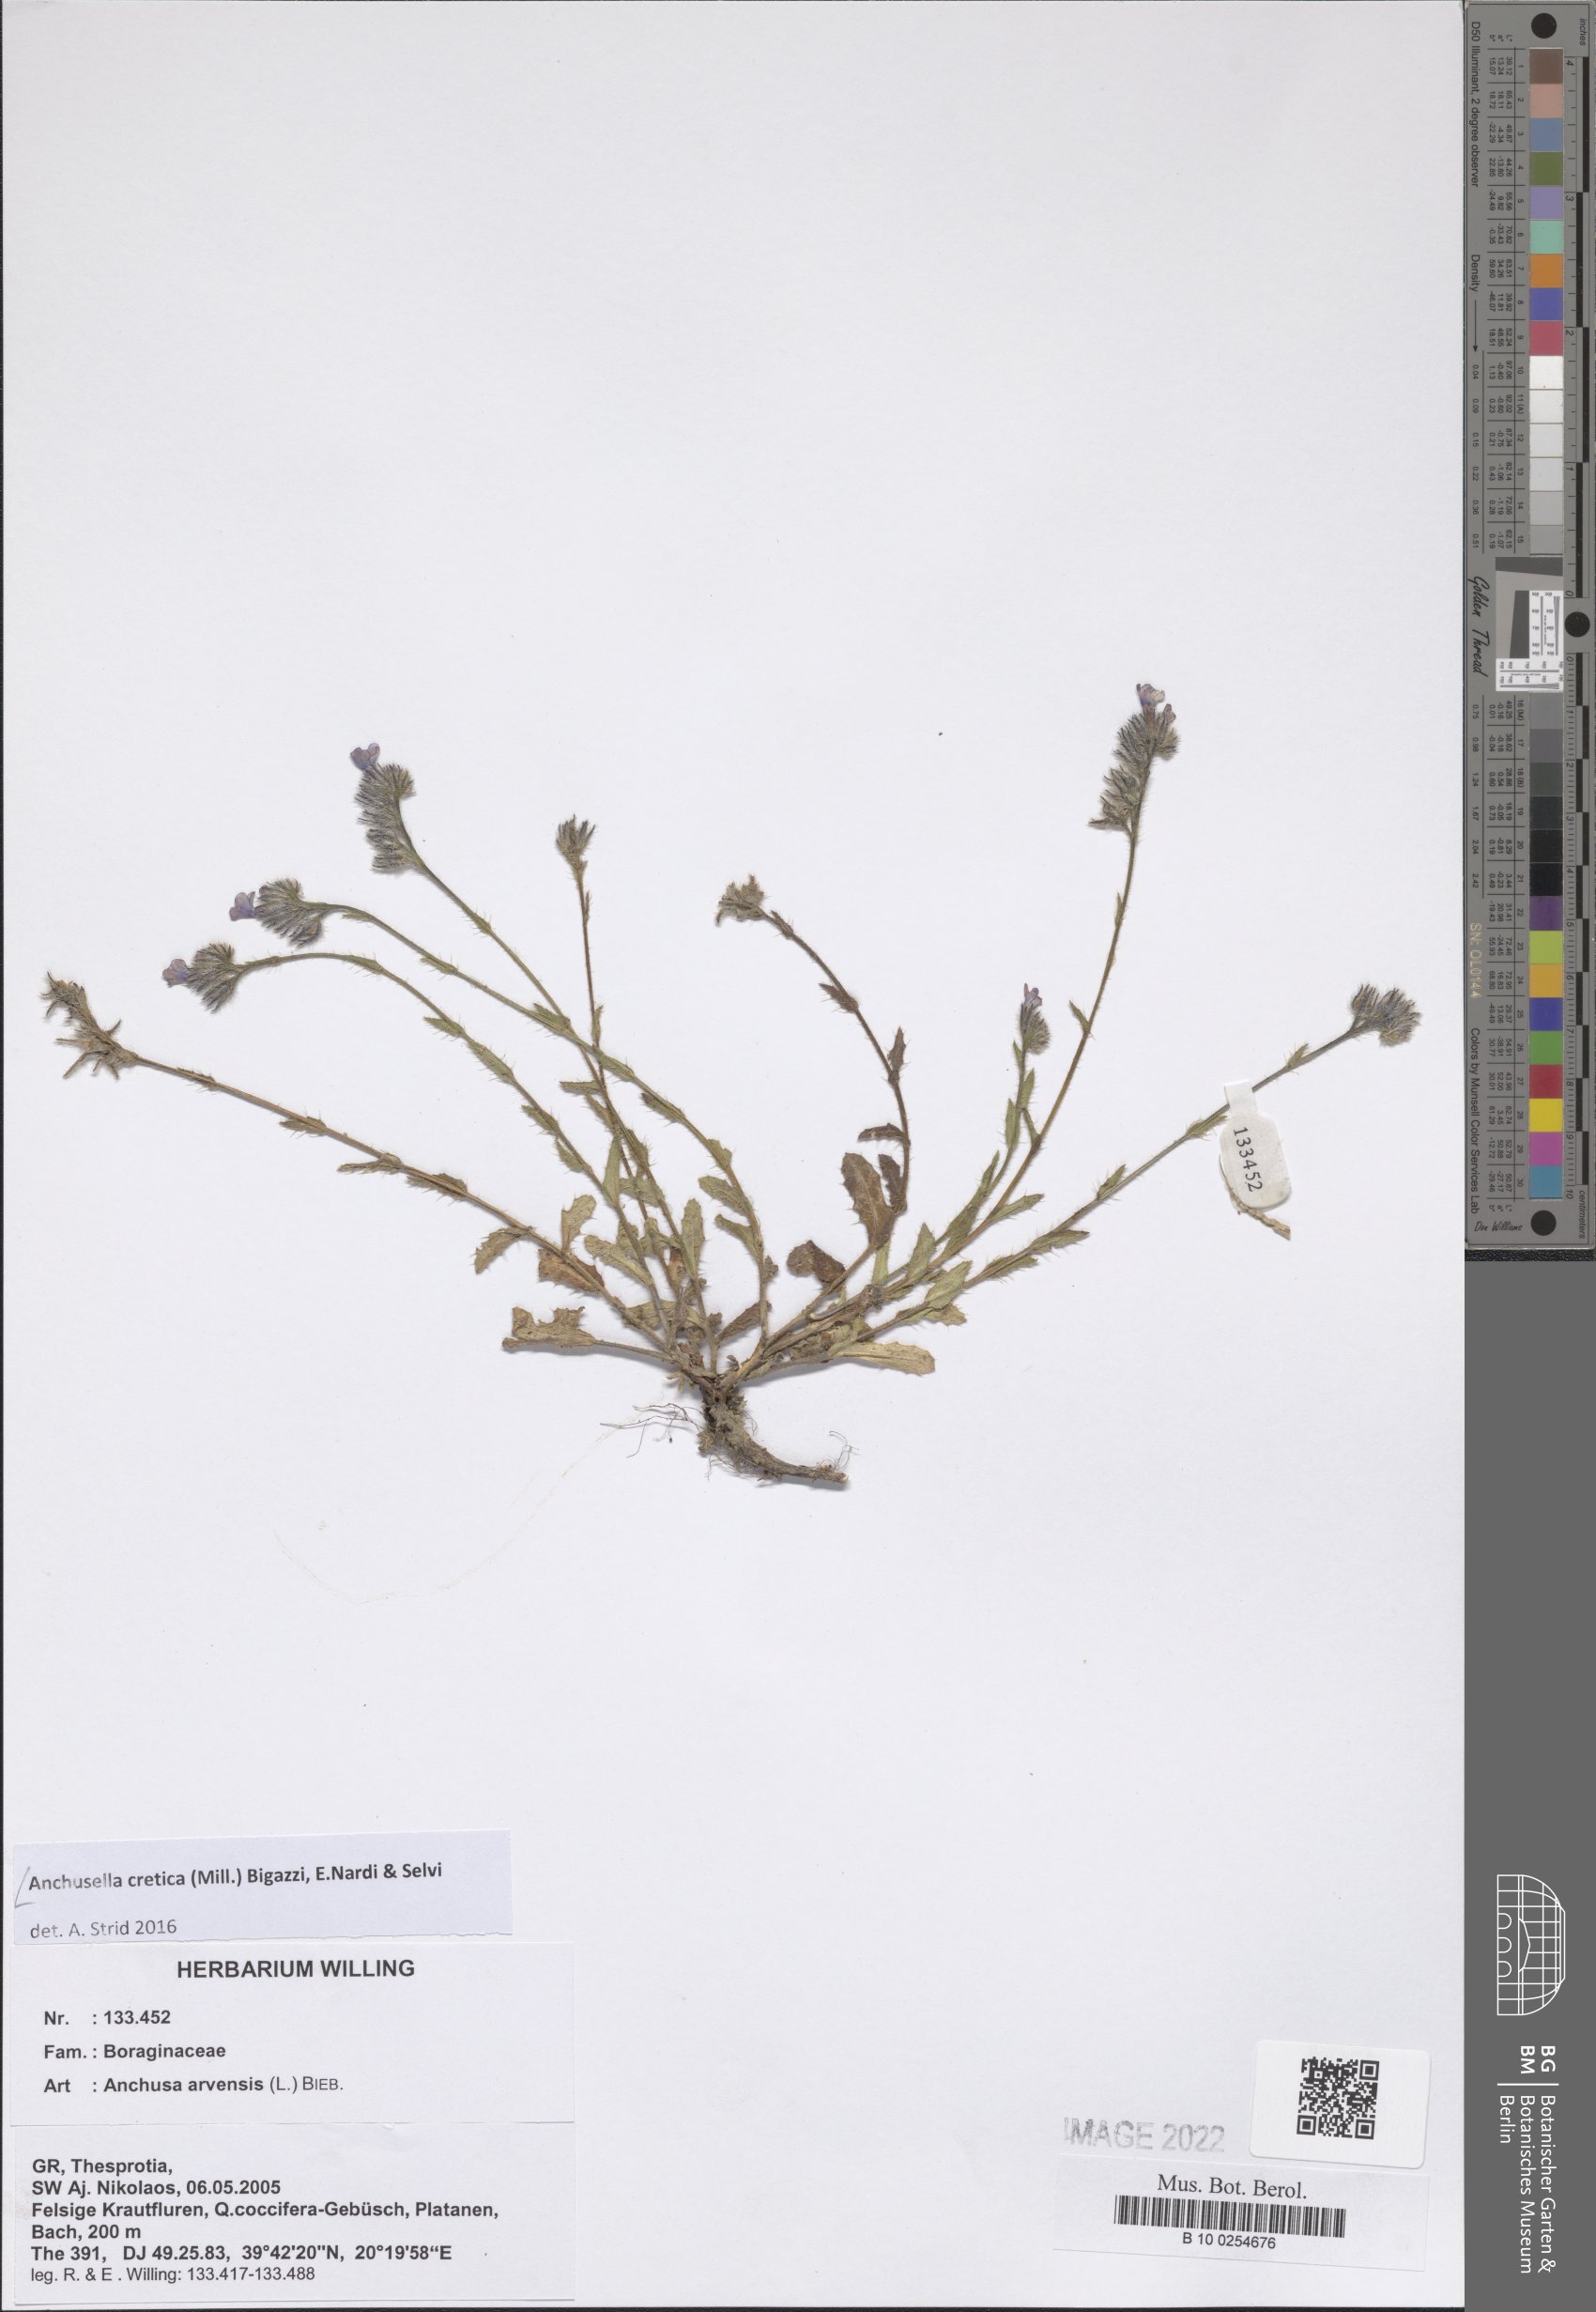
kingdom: Plantae
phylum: Tracheophyta
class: Magnoliopsida
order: Boraginales
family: Boraginaceae
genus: Anchusella
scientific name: Anchusella cretica
